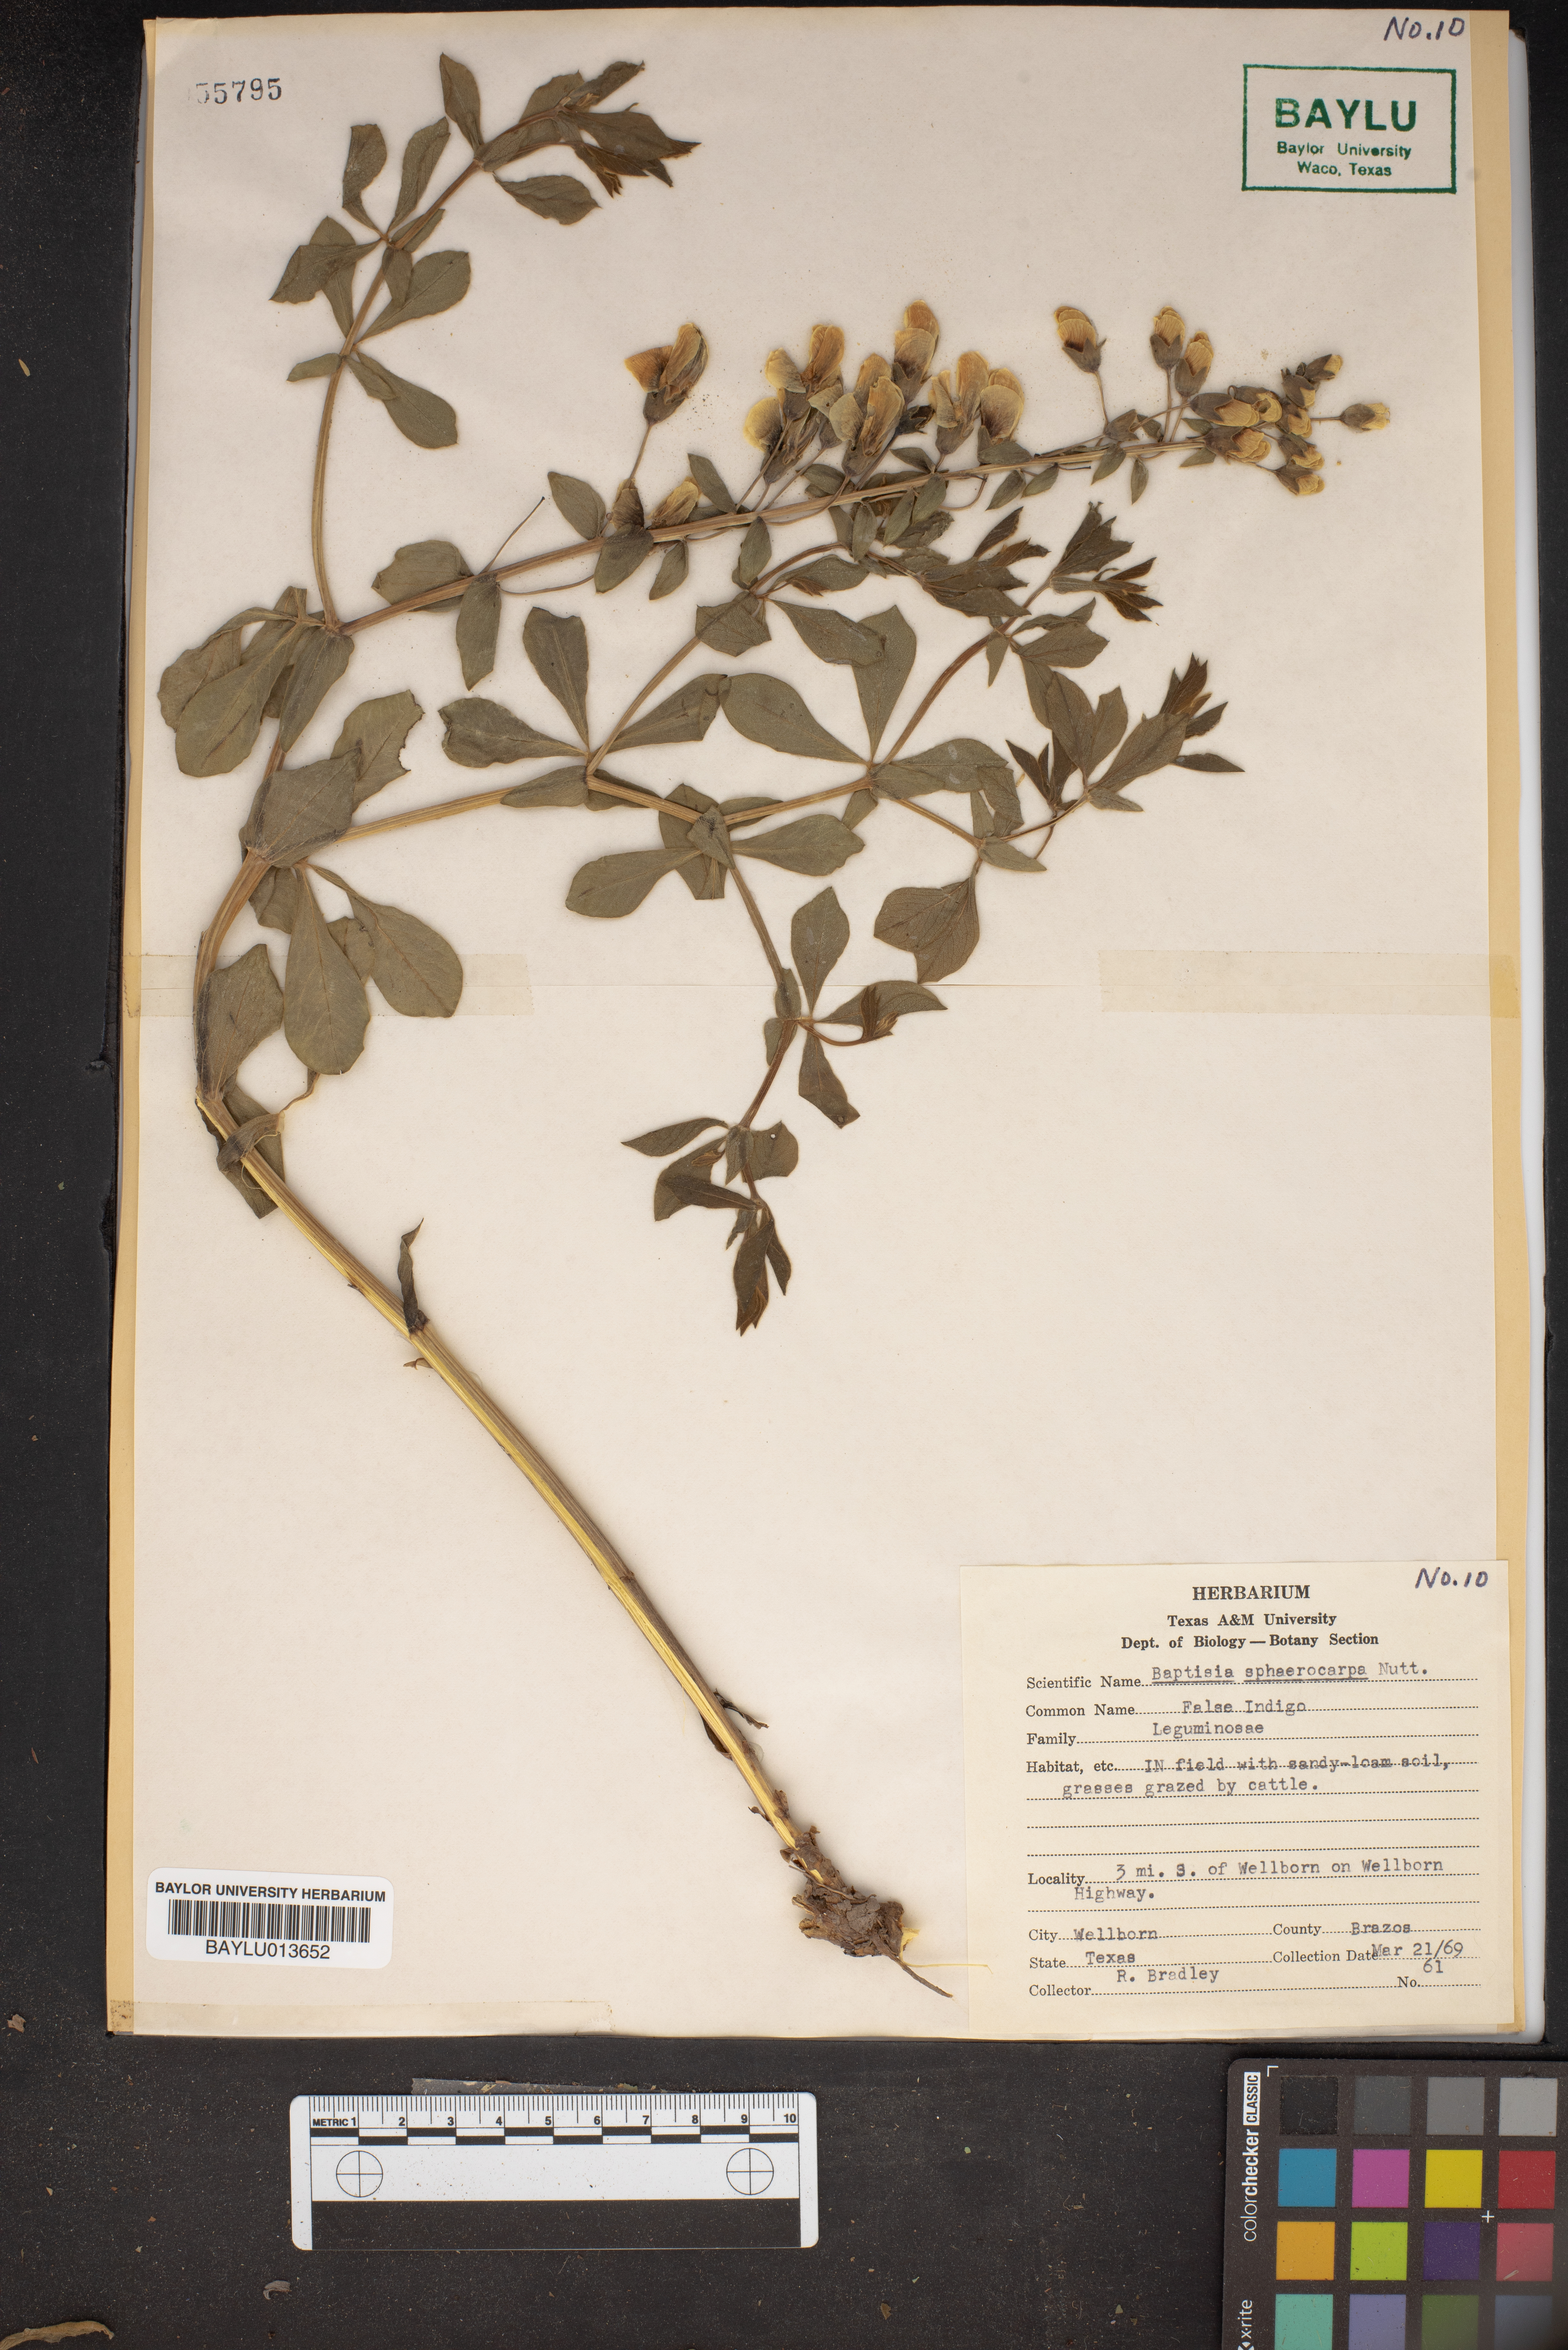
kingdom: Plantae
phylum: Tracheophyta
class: Magnoliopsida
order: Fabales
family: Fabaceae
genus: Baptisia
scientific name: Baptisia sphaerocarpa
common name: Round wild indigo
